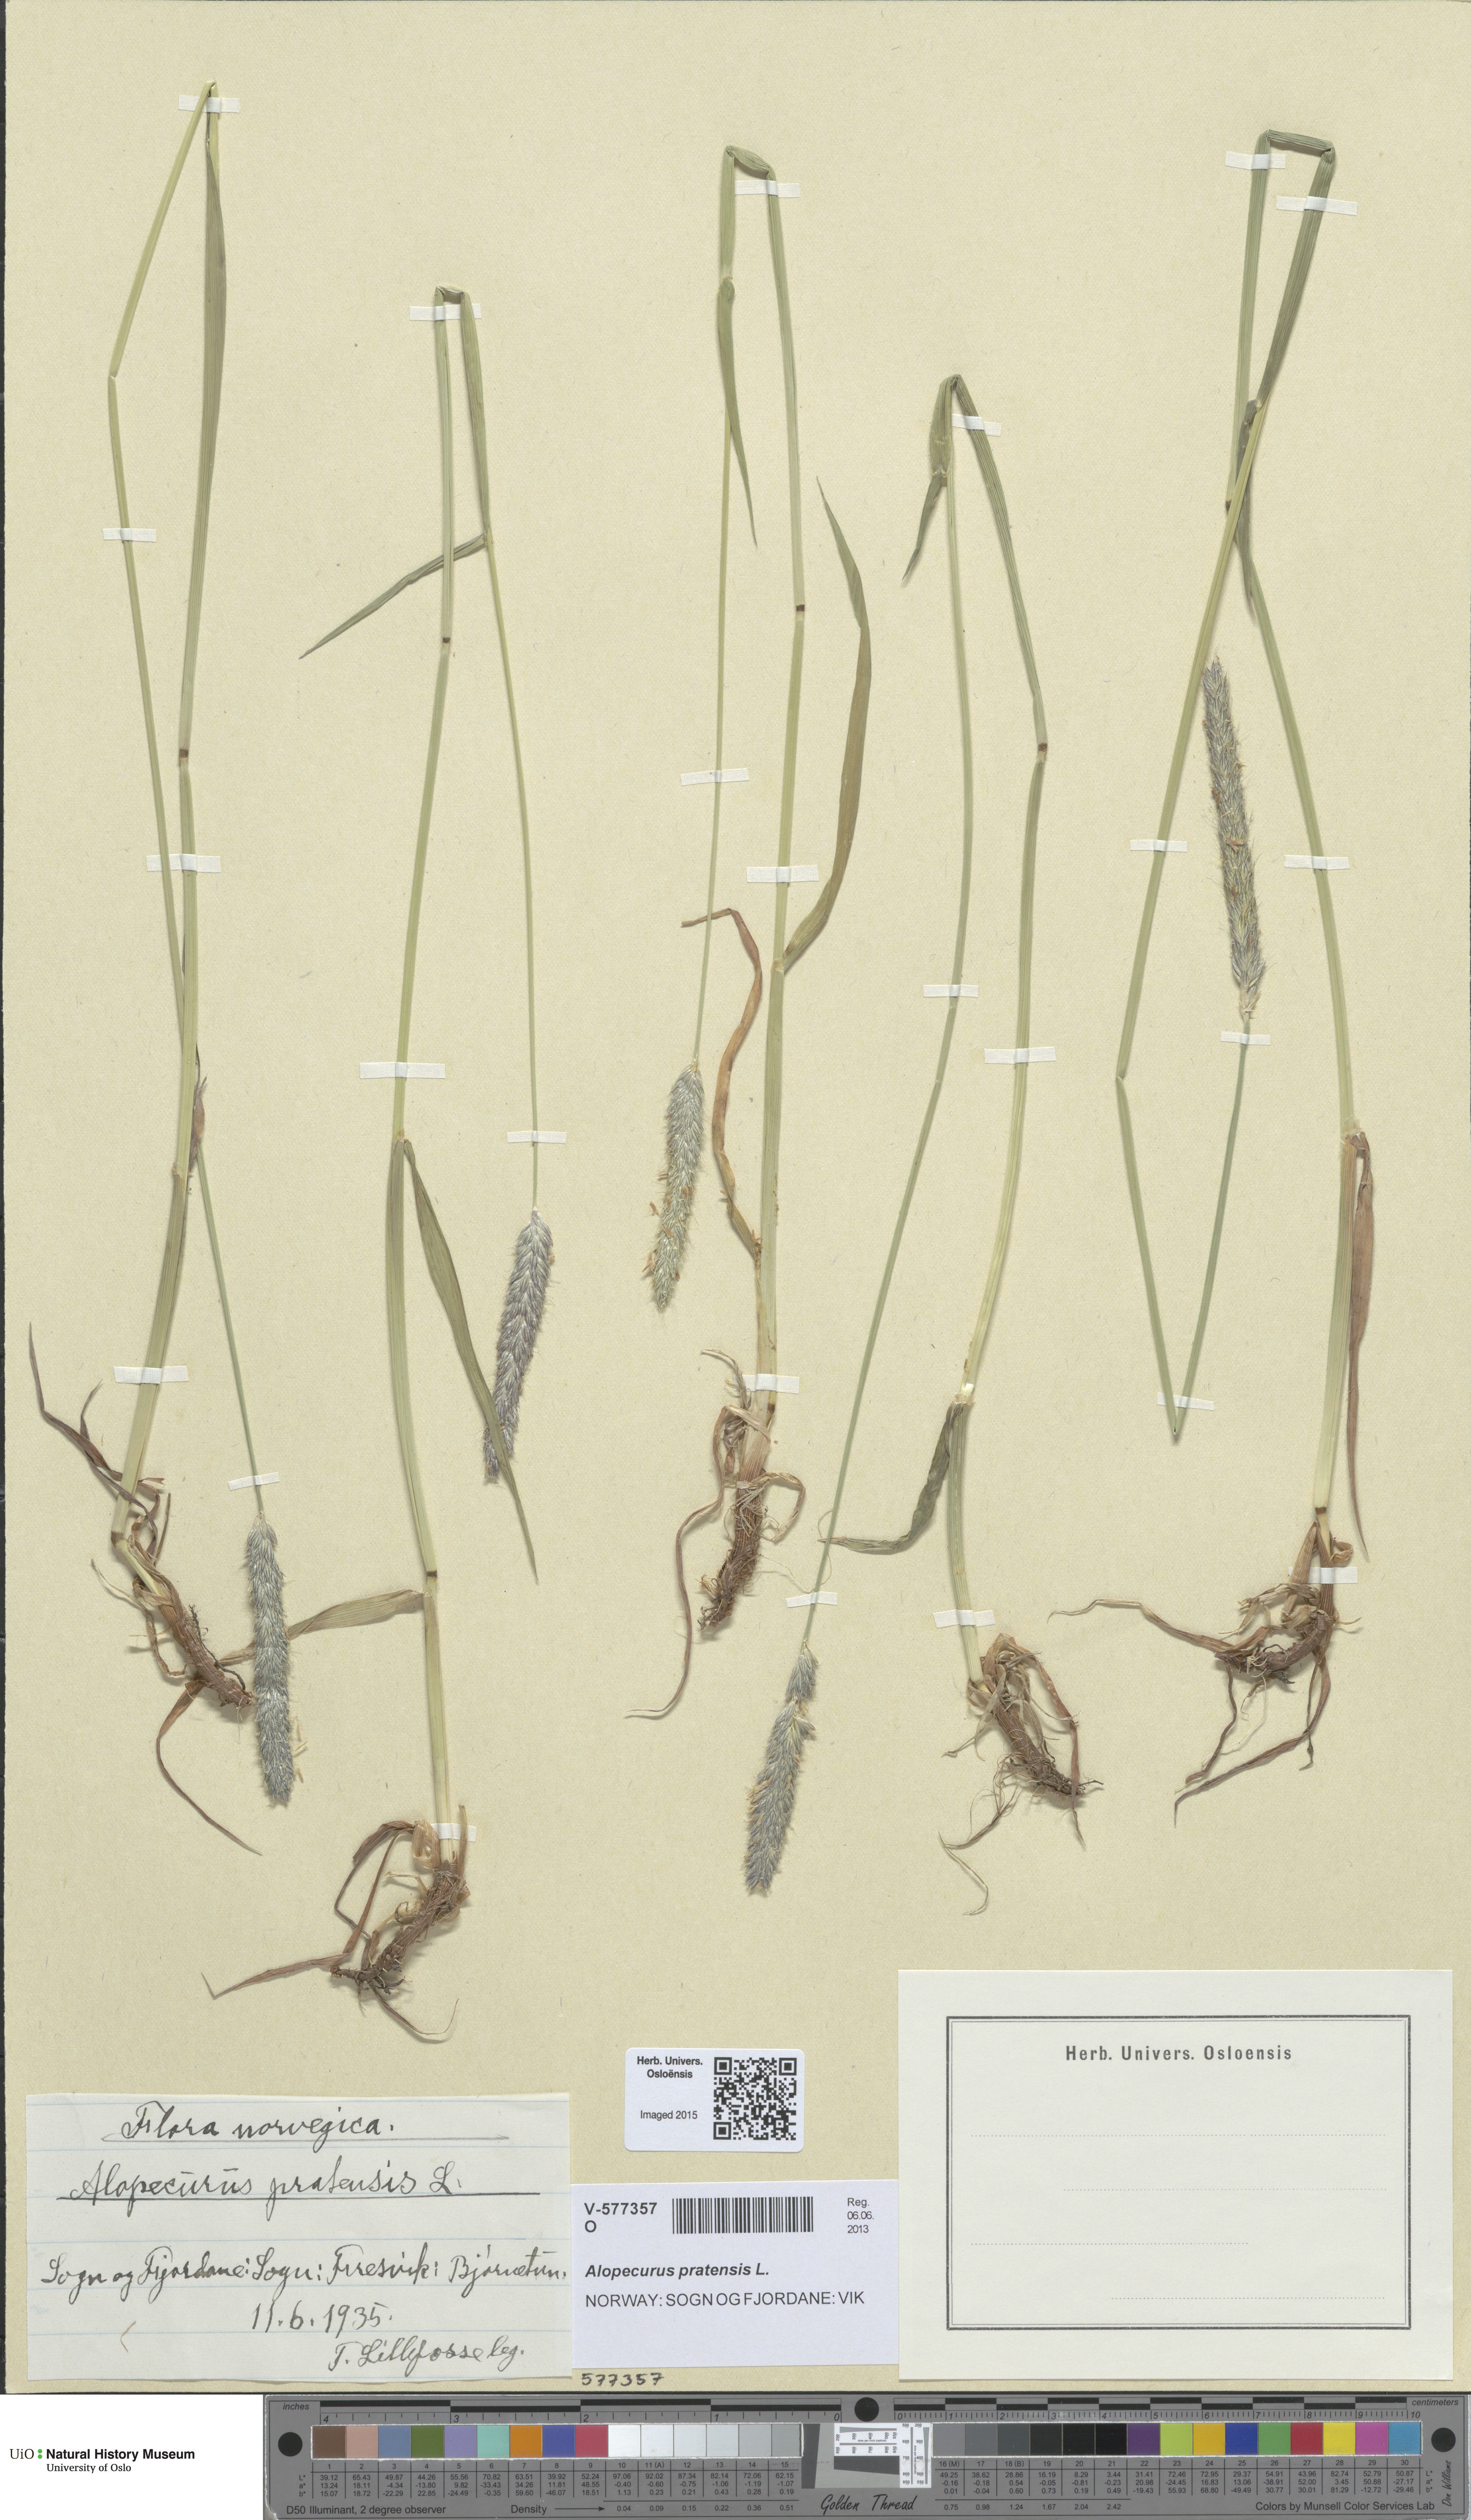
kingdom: Plantae
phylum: Tracheophyta
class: Liliopsida
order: Poales
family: Poaceae
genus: Alopecurus
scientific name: Alopecurus pratensis
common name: Meadow foxtail
